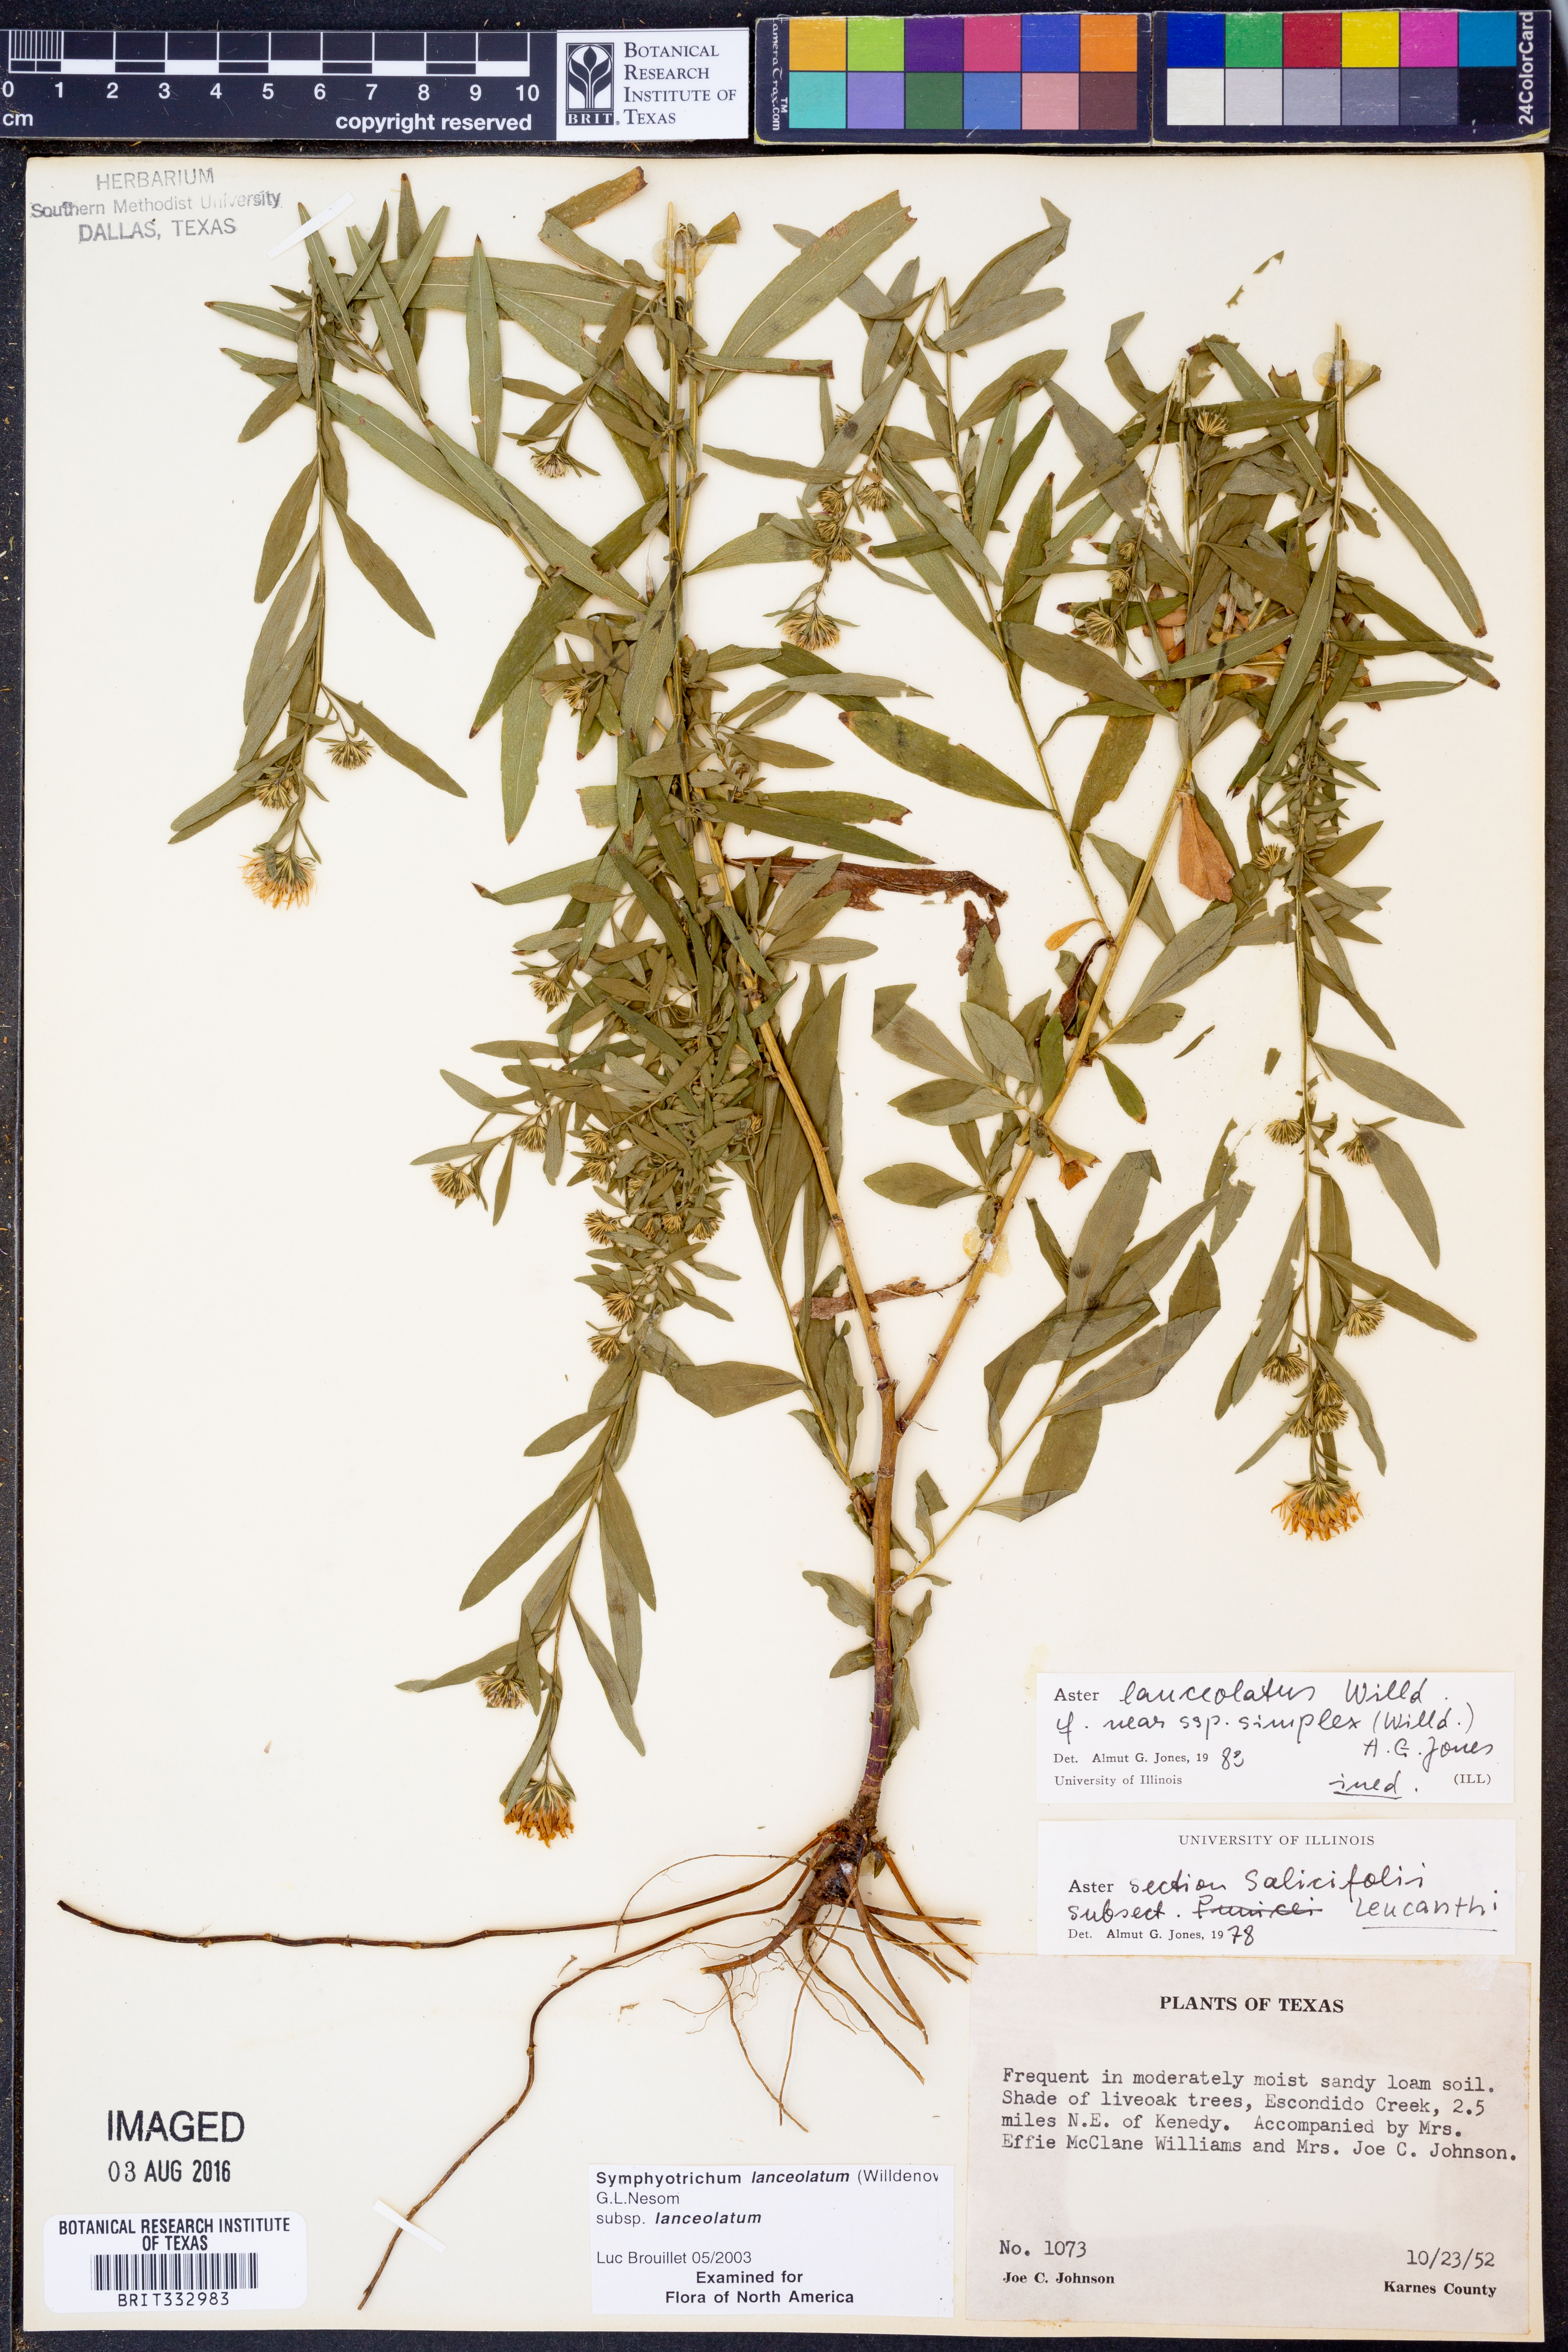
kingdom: Plantae
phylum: Tracheophyta
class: Magnoliopsida
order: Asterales
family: Asteraceae
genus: Symphyotrichum
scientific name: Symphyotrichum lanceolatum
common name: Panicled aster
